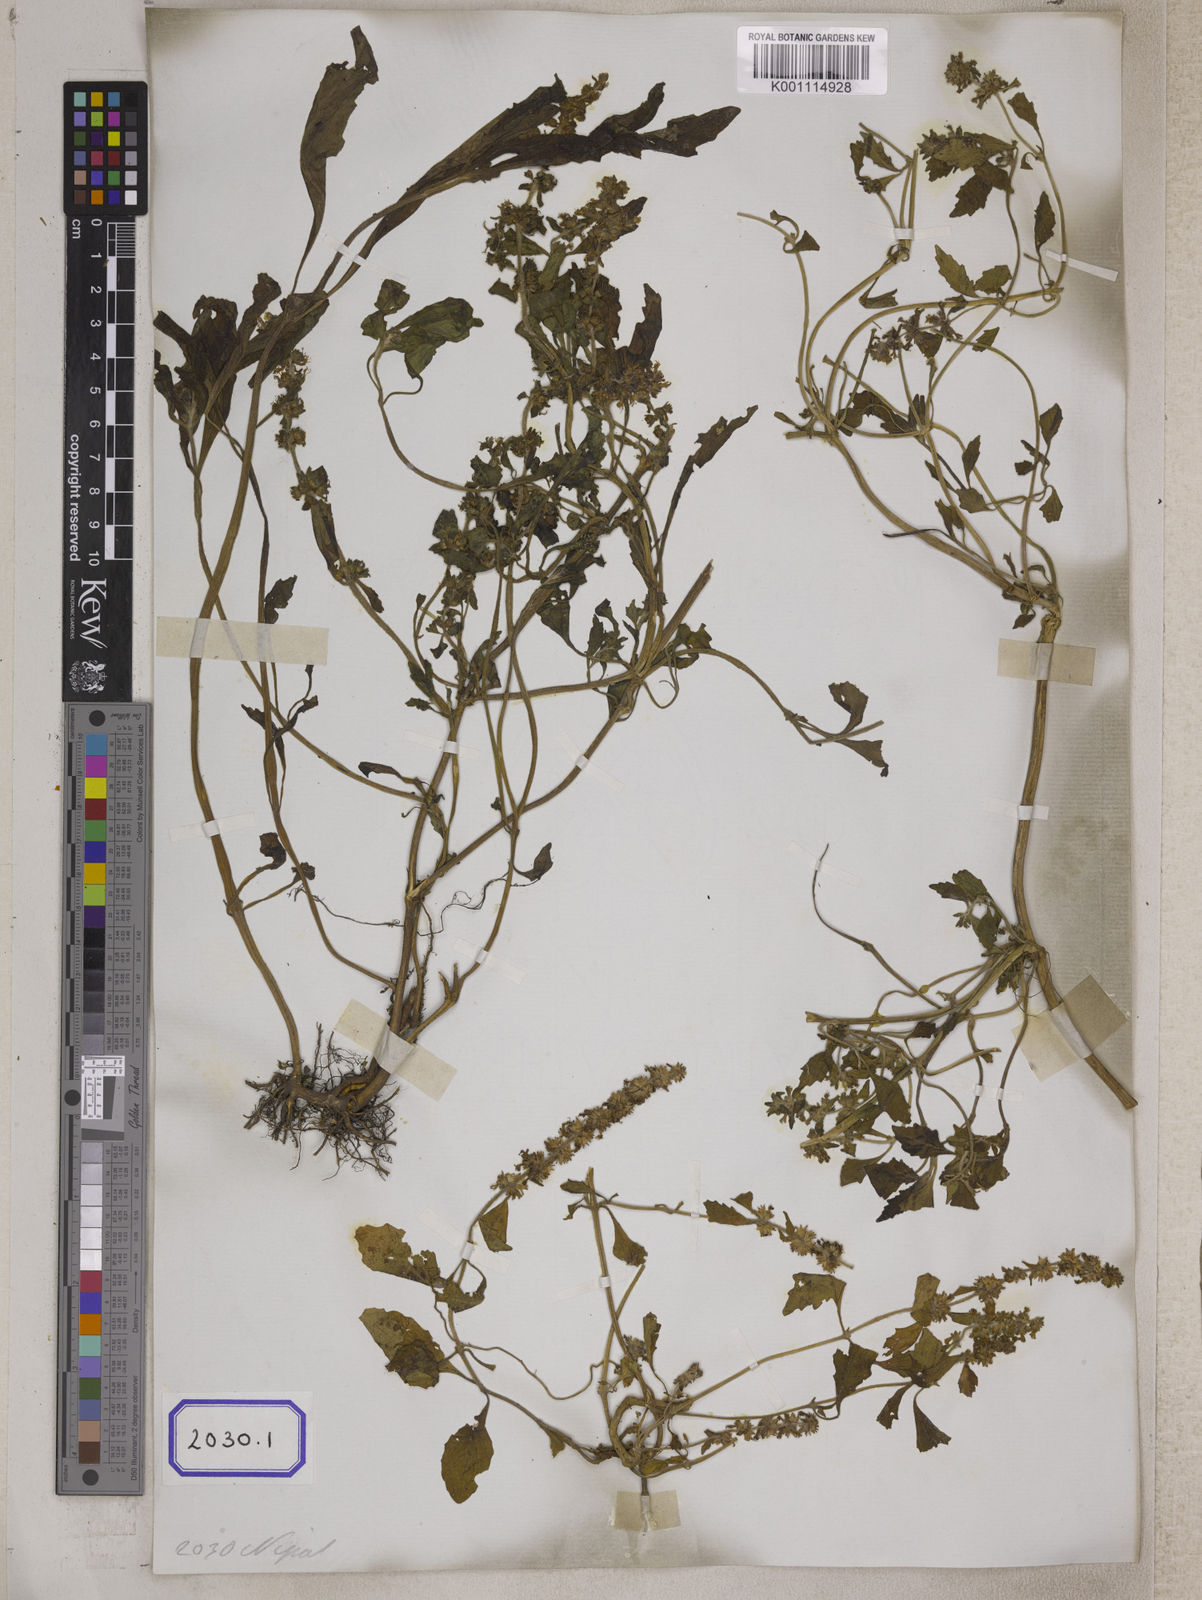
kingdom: Plantae
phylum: Tracheophyta
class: Magnoliopsida
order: Lamiales
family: Lamiaceae
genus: Ajuga
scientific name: Ajuga
